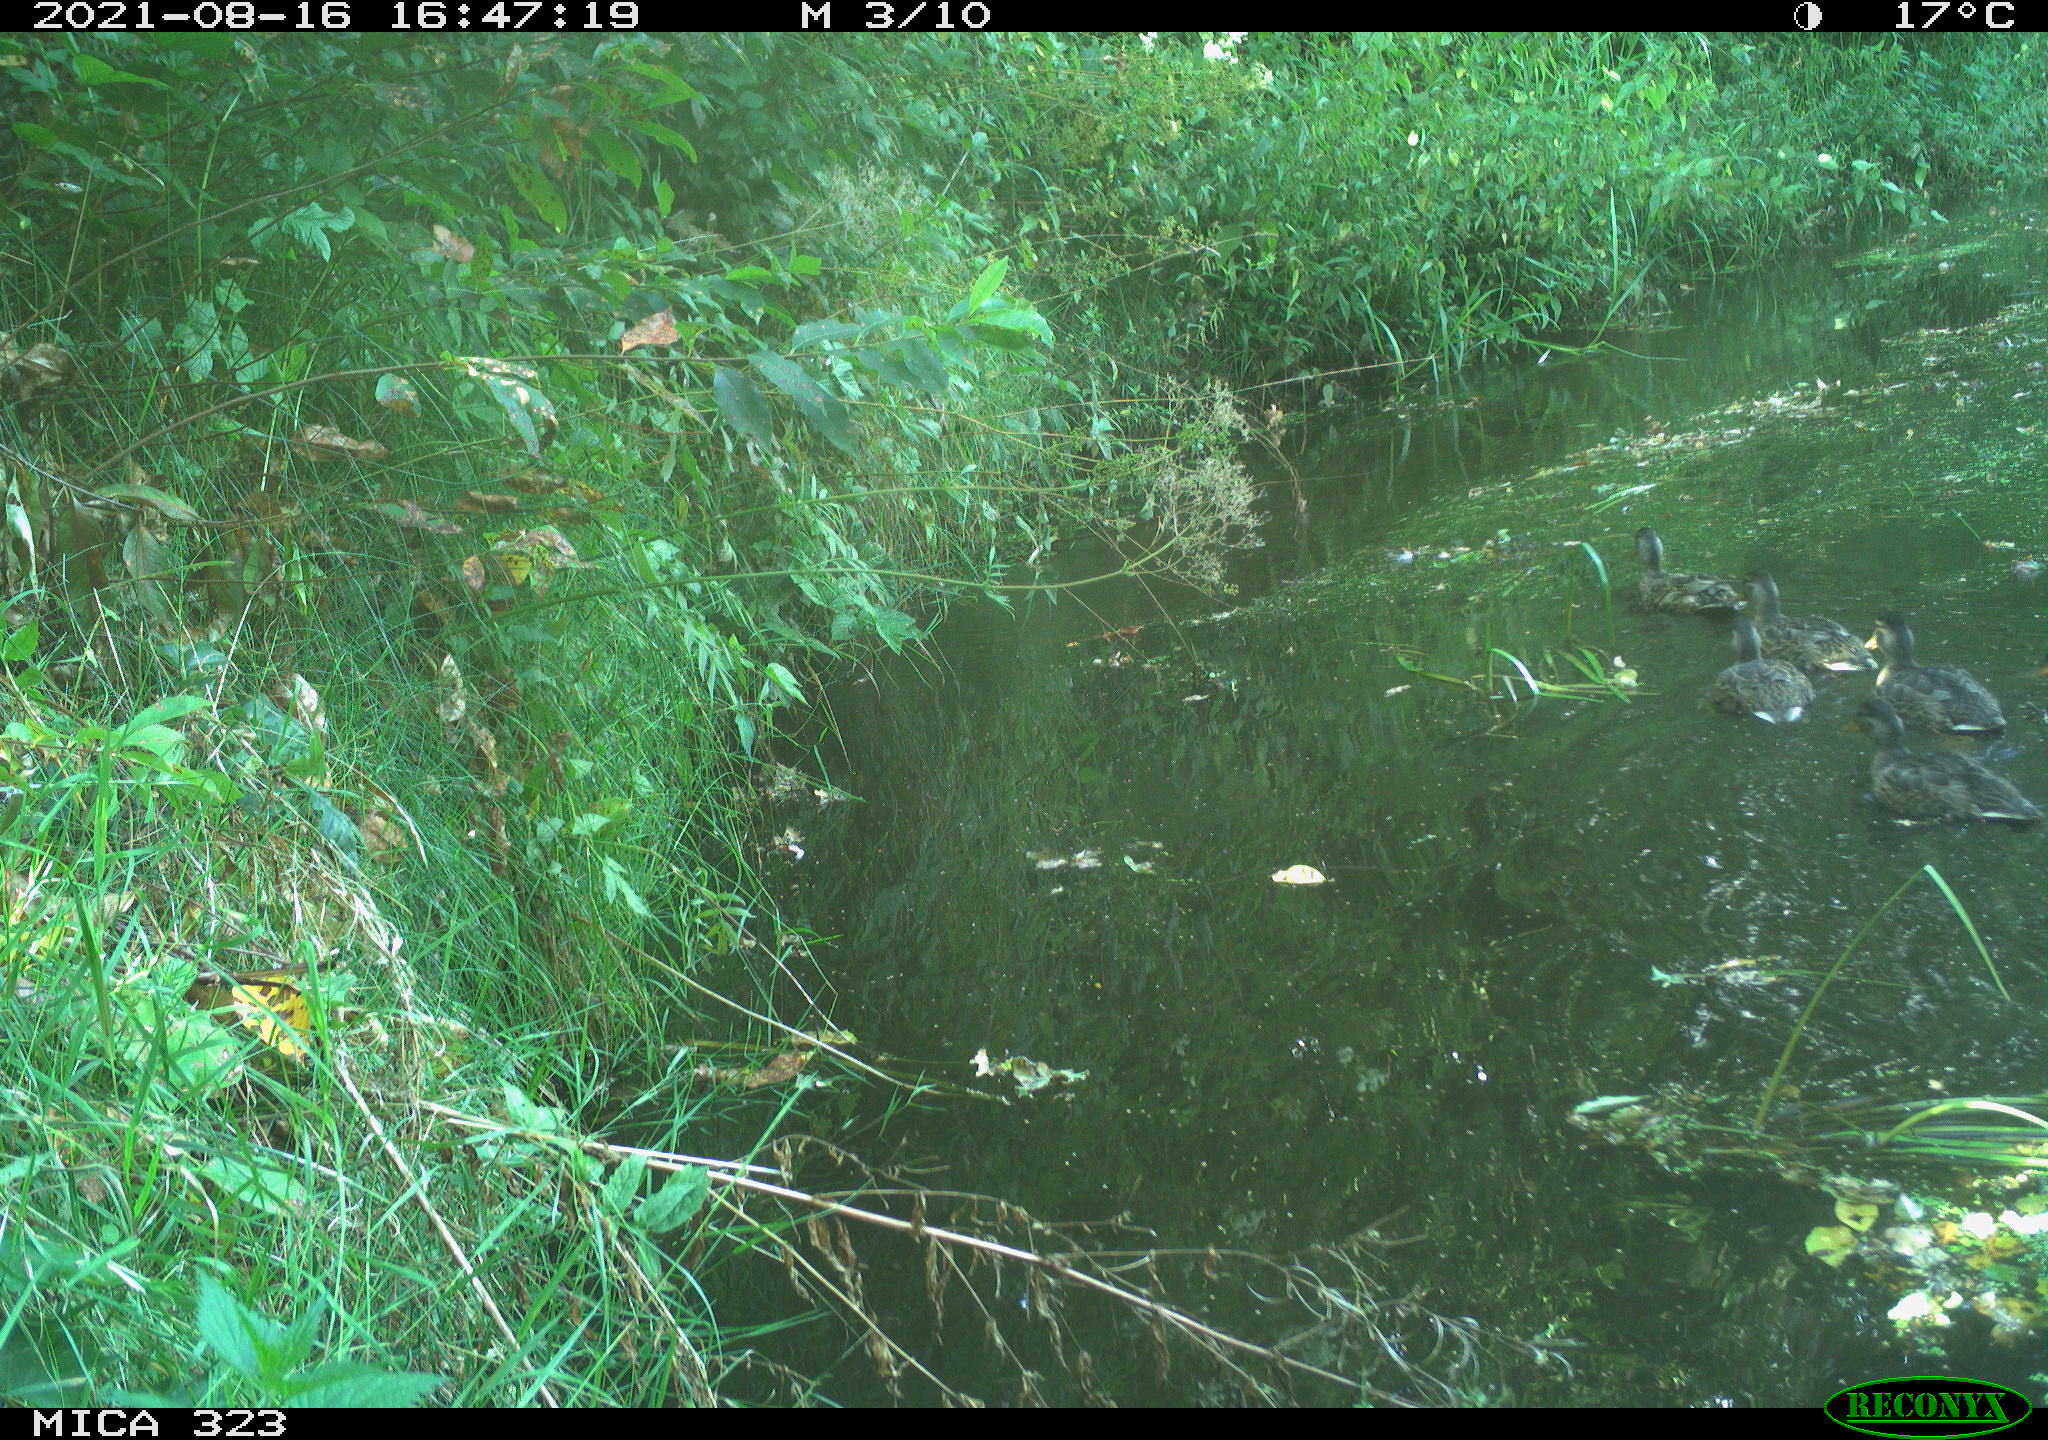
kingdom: Animalia
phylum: Chordata
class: Aves
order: Anseriformes
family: Anatidae
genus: Anas
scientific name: Anas platyrhynchos
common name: Mallard
